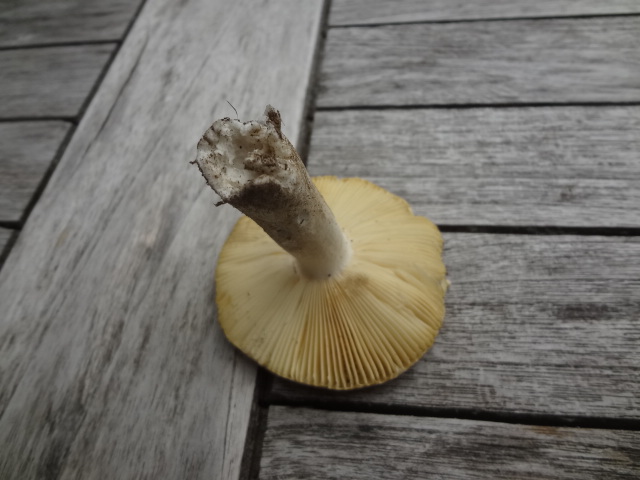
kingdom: Fungi
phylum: Basidiomycota
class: Agaricomycetes
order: Russulales
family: Russulaceae
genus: Russula
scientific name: Russula cessans
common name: fyrre-skørhat
